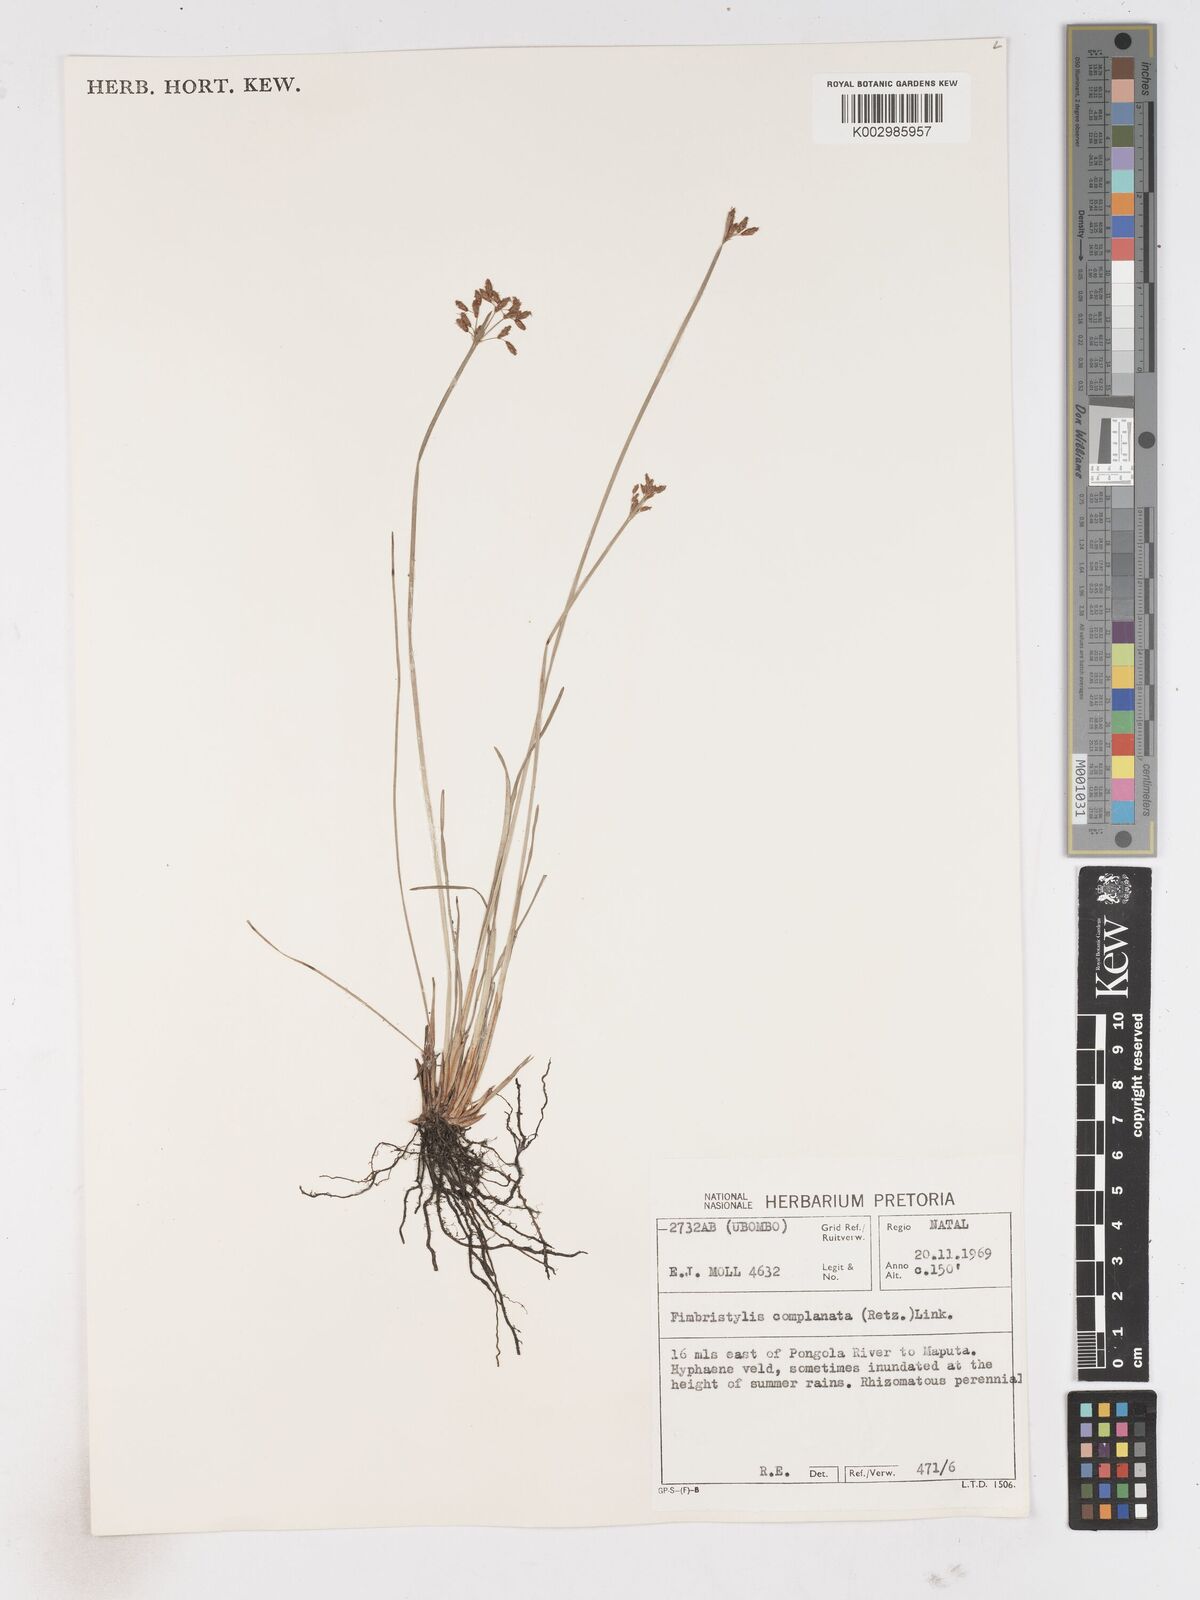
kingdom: Plantae
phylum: Tracheophyta
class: Liliopsida
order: Poales
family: Cyperaceae
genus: Fimbristylis
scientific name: Fimbristylis complanata
